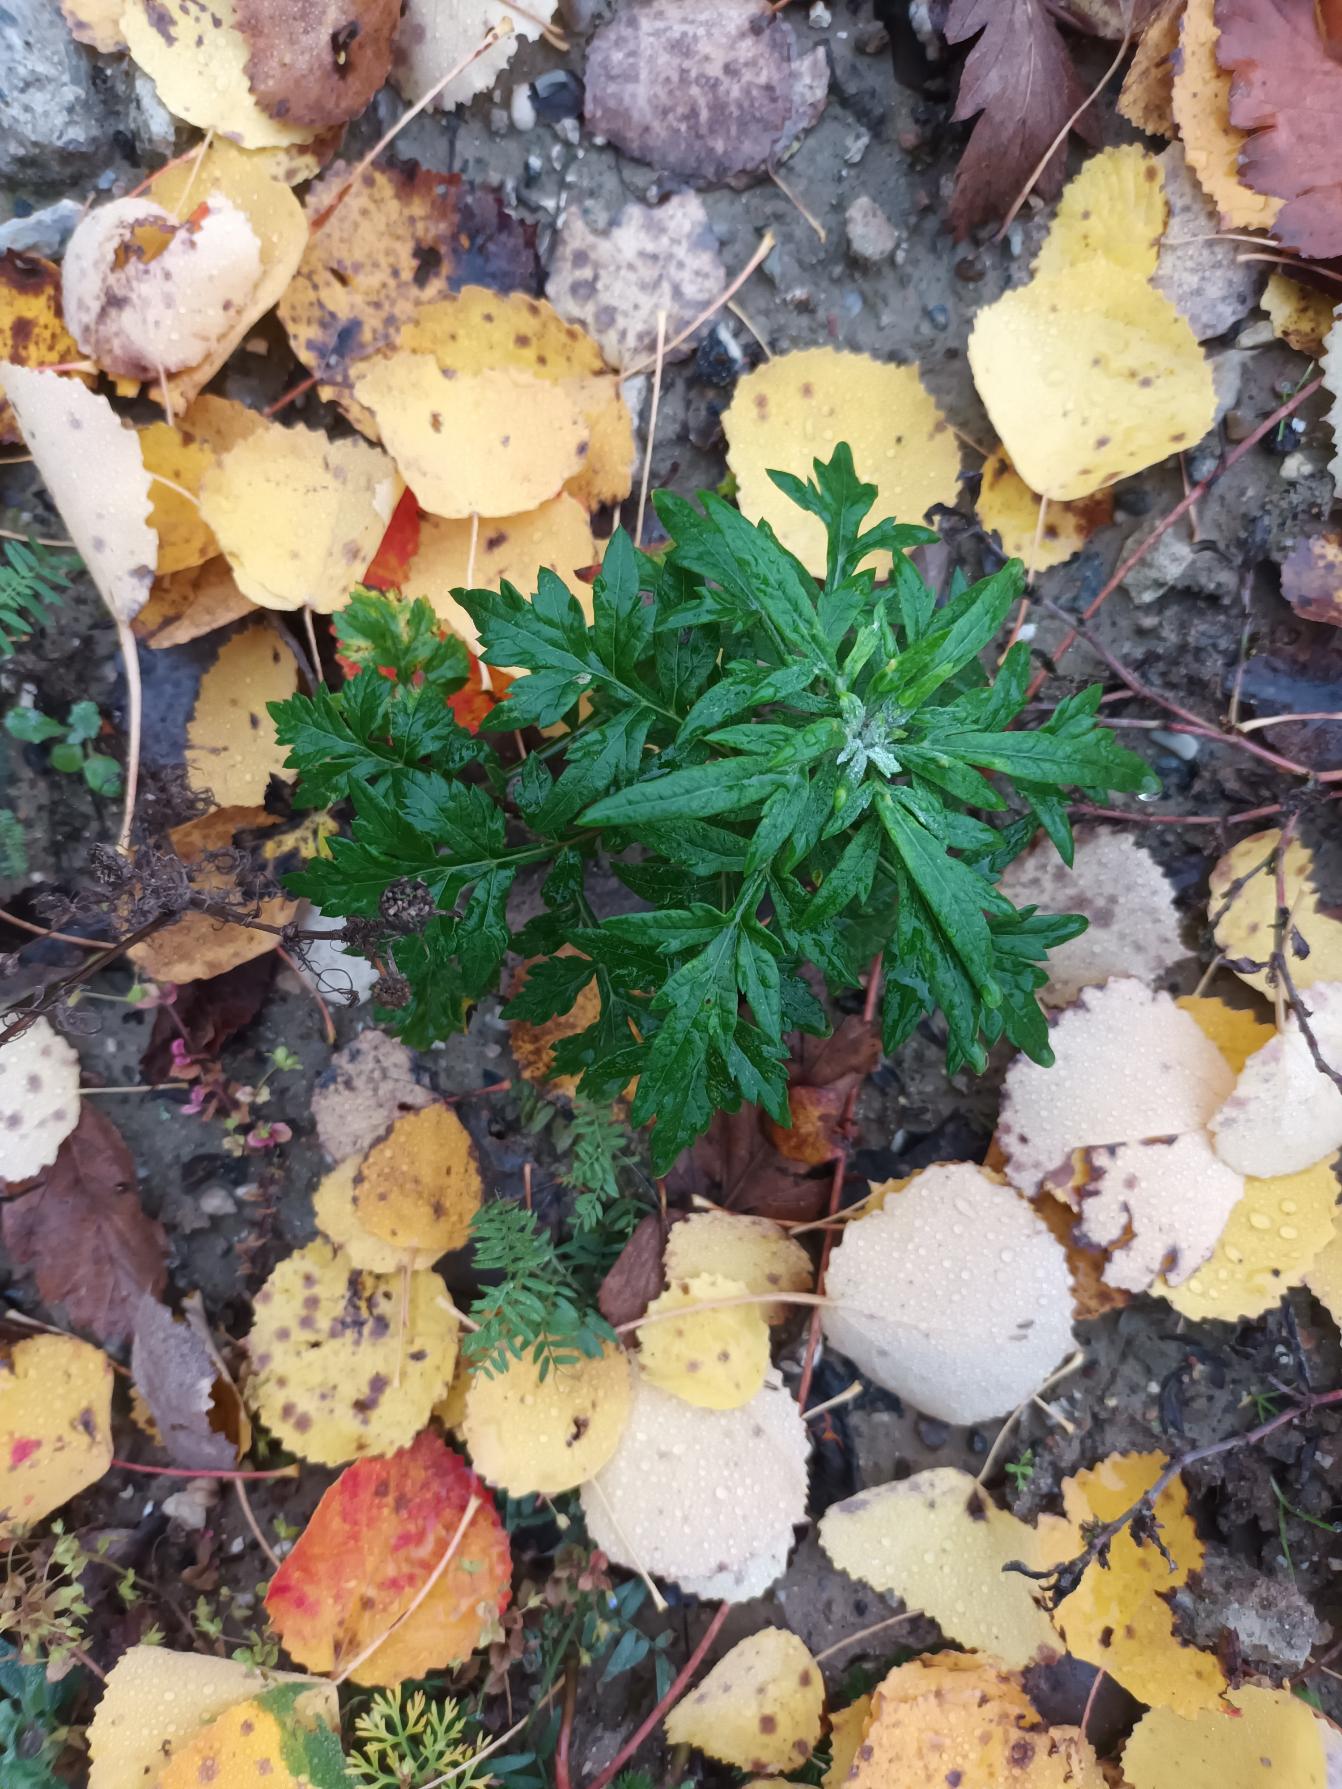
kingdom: Plantae
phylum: Tracheophyta
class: Magnoliopsida
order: Asterales
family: Asteraceae
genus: Artemisia
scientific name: Artemisia vulgaris
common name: Grå-bynke
